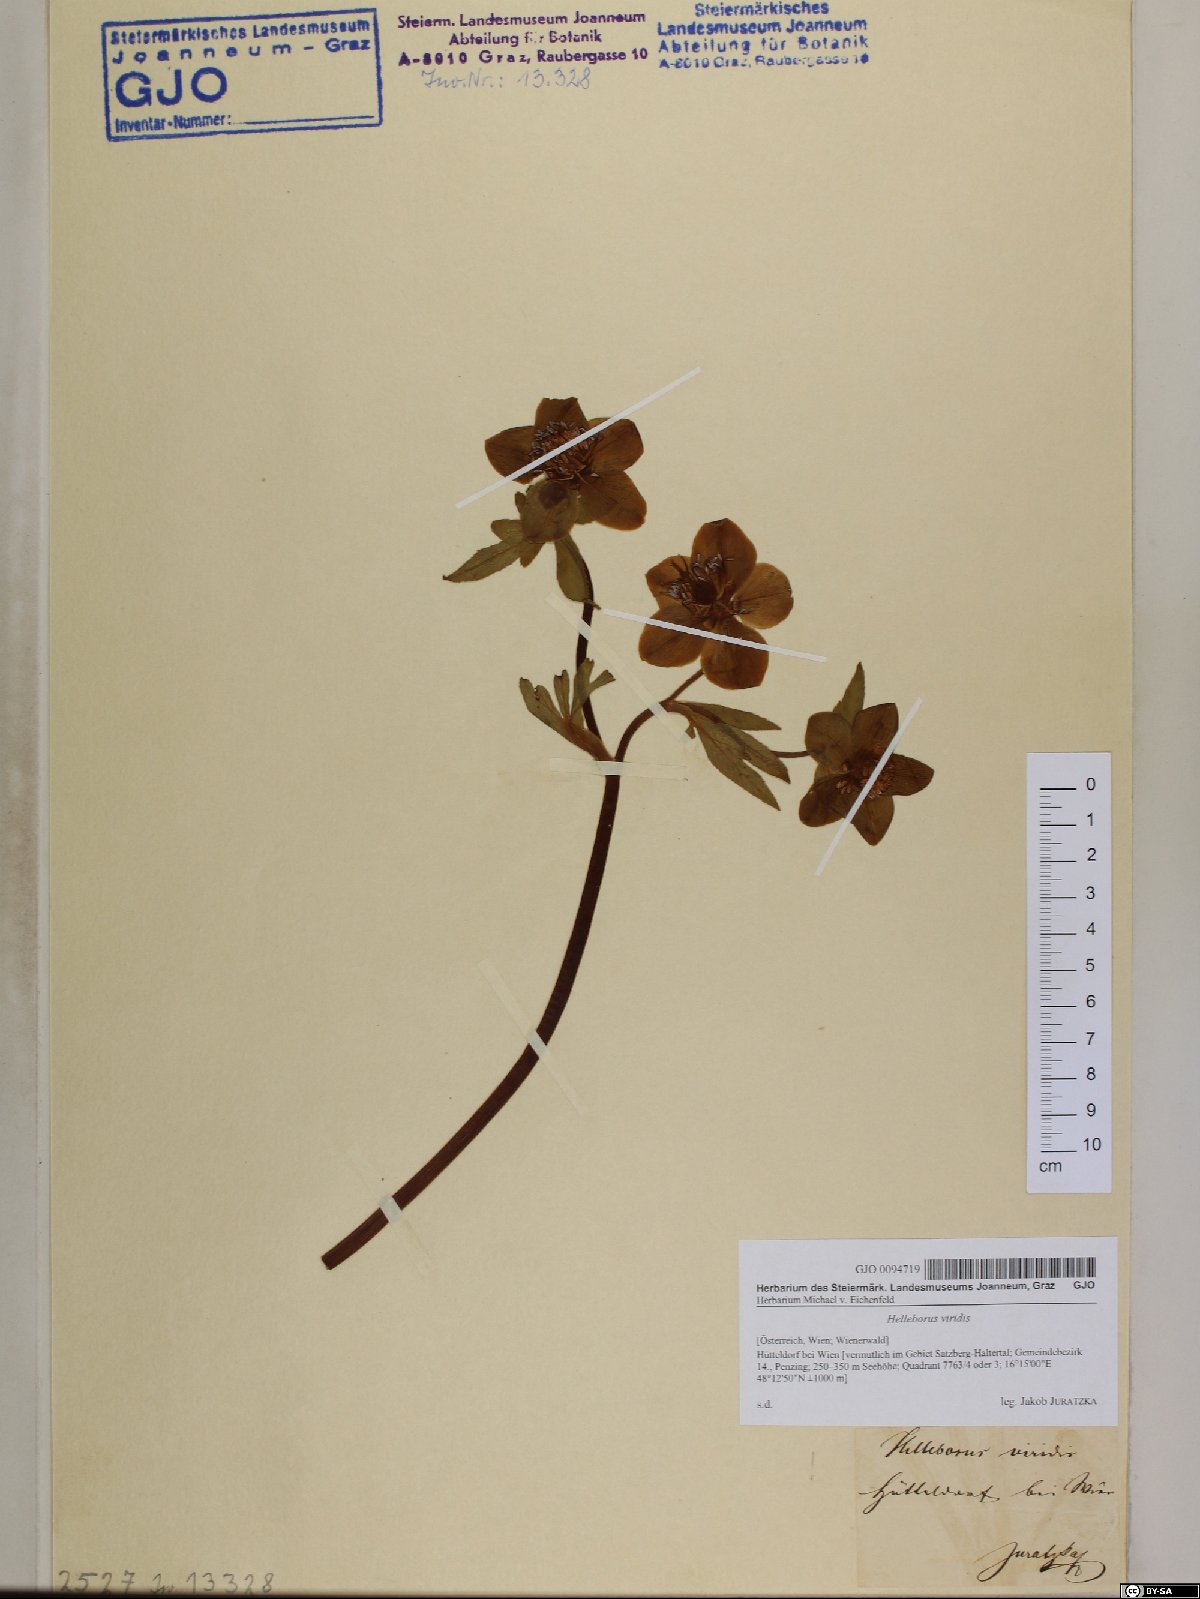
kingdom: Plantae
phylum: Tracheophyta
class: Magnoliopsida
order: Ranunculales
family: Ranunculaceae
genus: Helleborus
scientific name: Helleborus viridis
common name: Green hellebore
